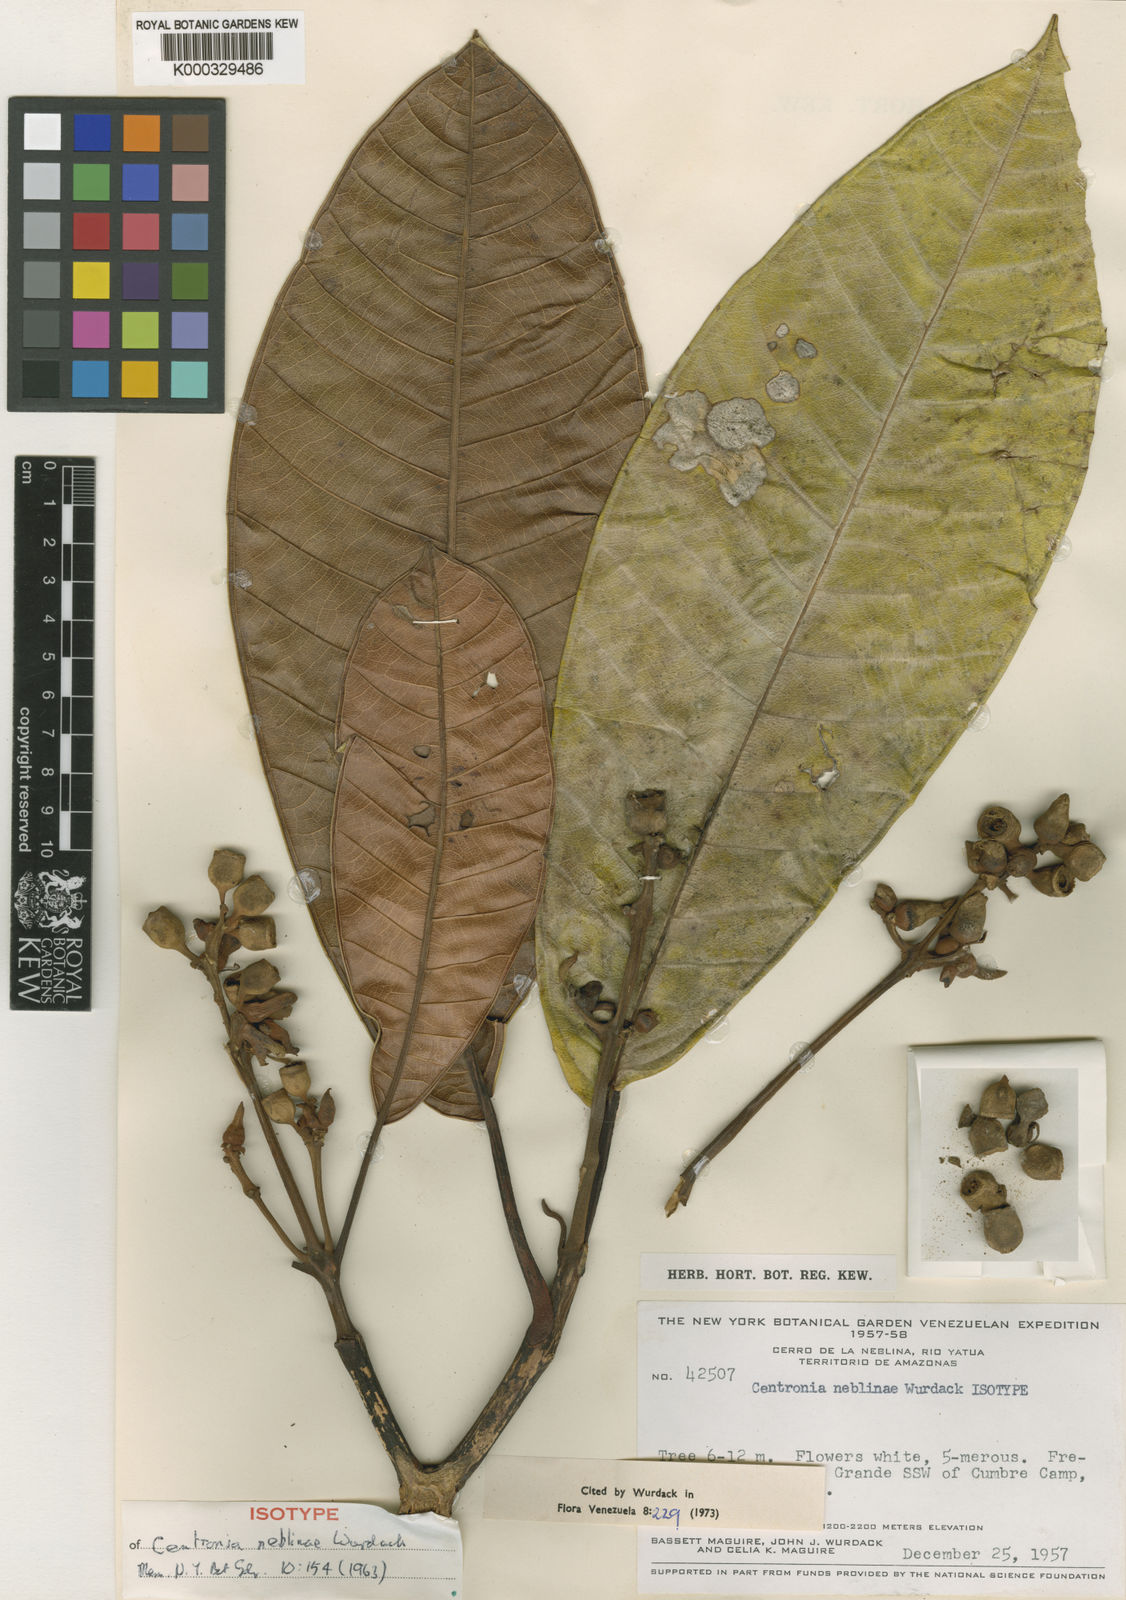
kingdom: Plantae
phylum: Tracheophyta
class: Magnoliopsida
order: Myrtales
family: Melastomataceae
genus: Centronia
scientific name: Centronia neblinae
